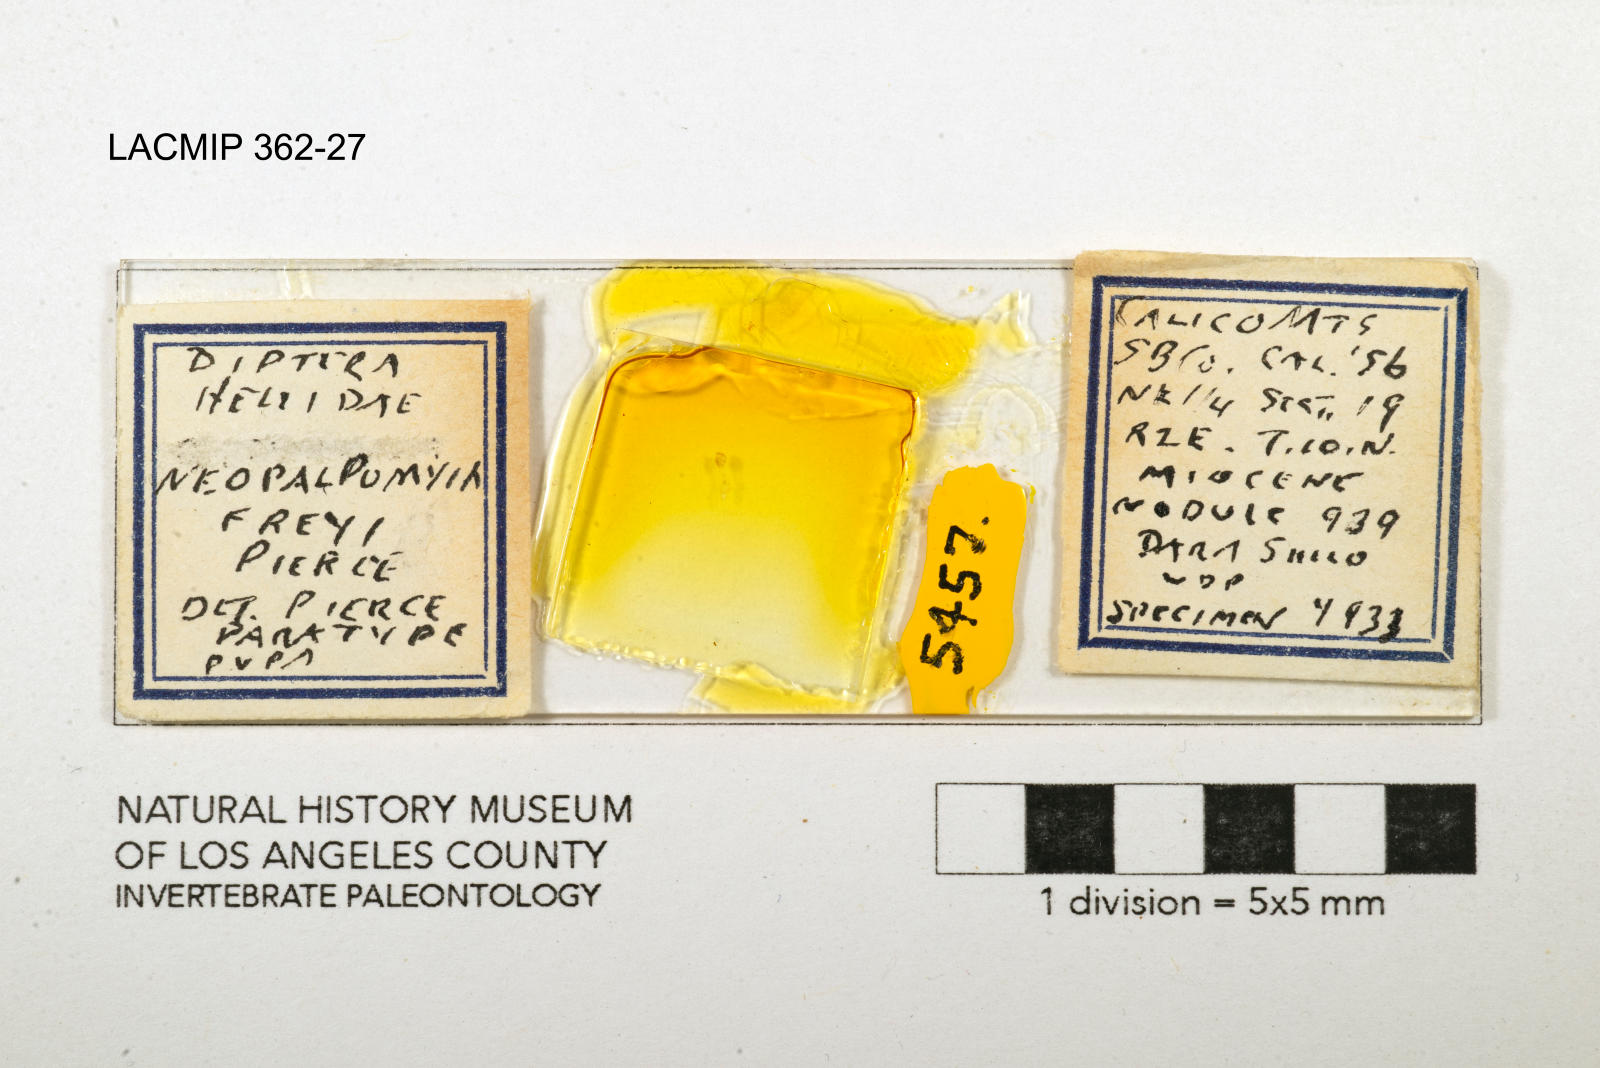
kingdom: Animalia
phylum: Arthropoda
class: Insecta
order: Diptera
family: Ceratopogonidae
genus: Palpomyia
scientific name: Palpomyia freyi
